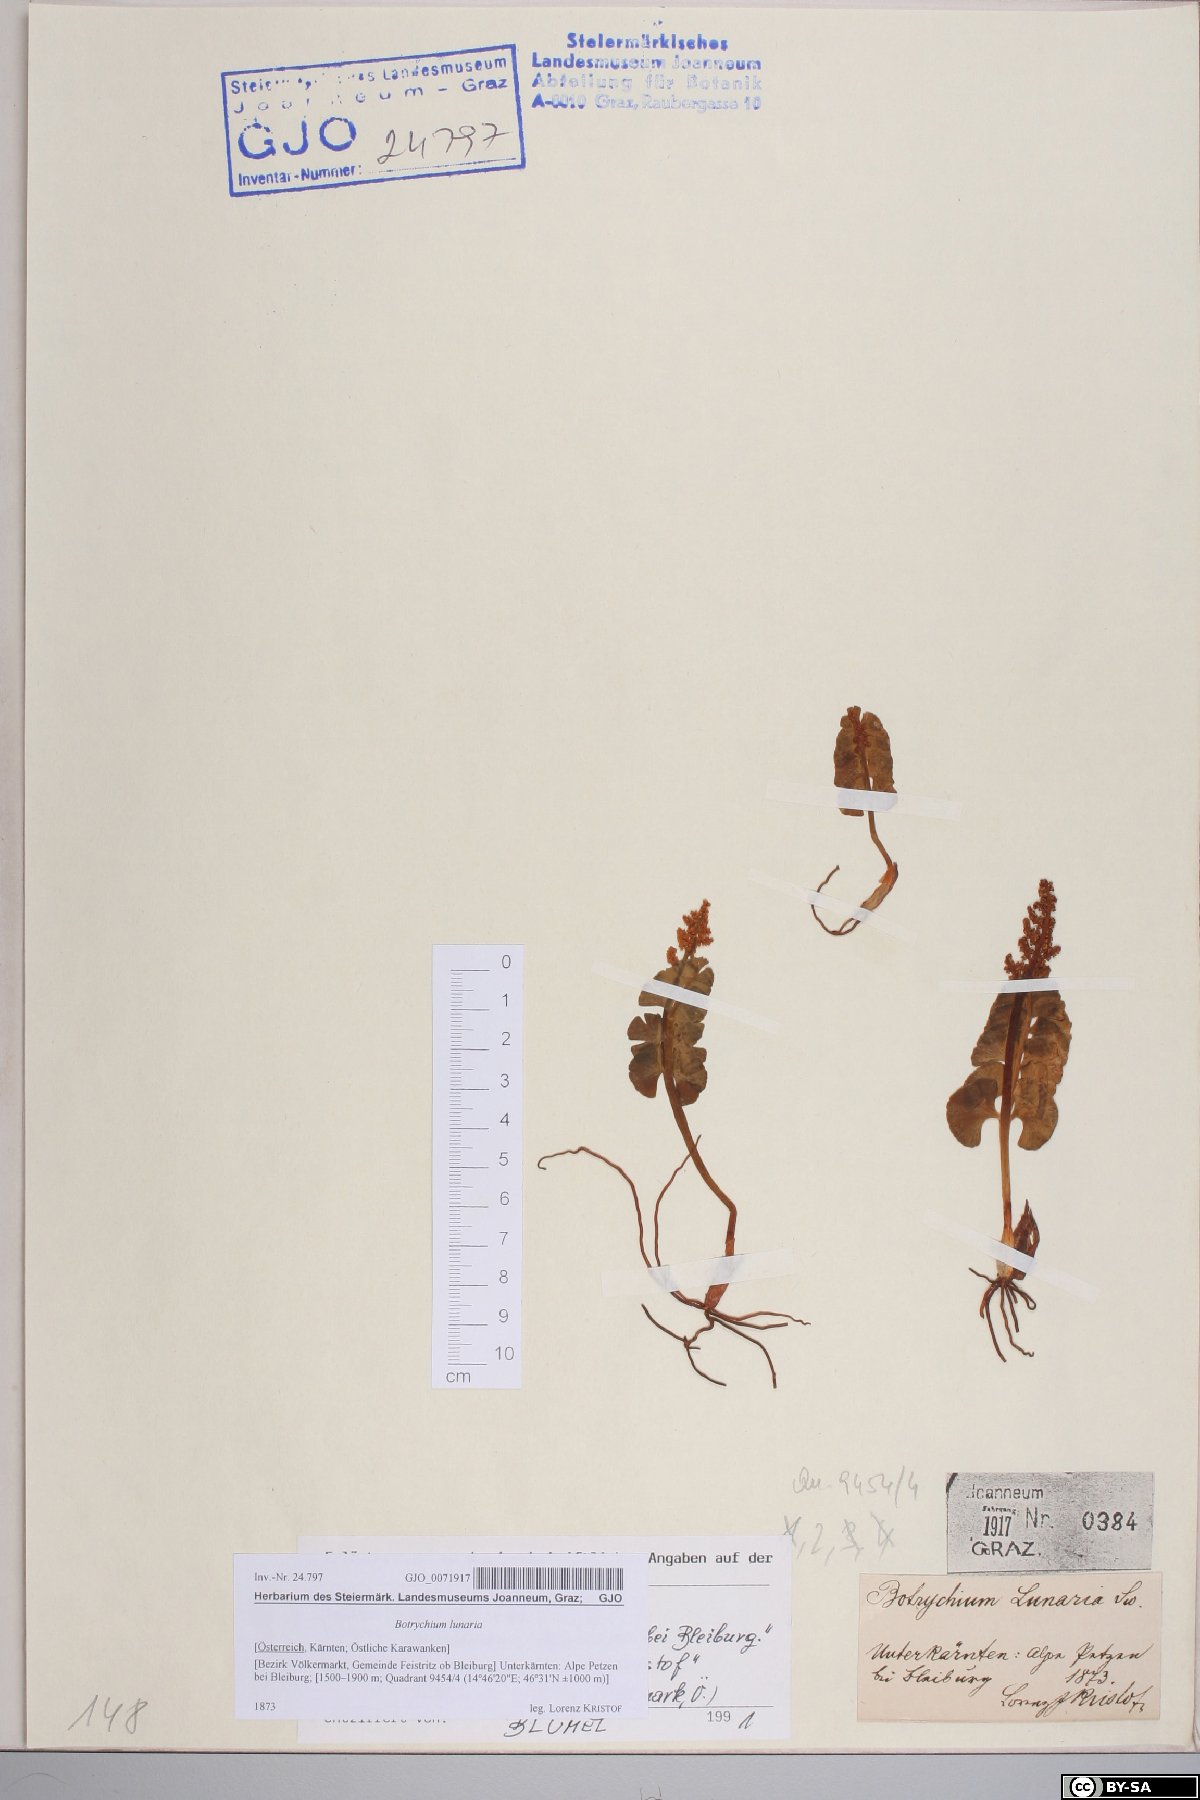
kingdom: Plantae
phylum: Tracheophyta
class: Polypodiopsida
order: Ophioglossales
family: Ophioglossaceae
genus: Botrychium
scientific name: Botrychium lunaria
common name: Moonwort
